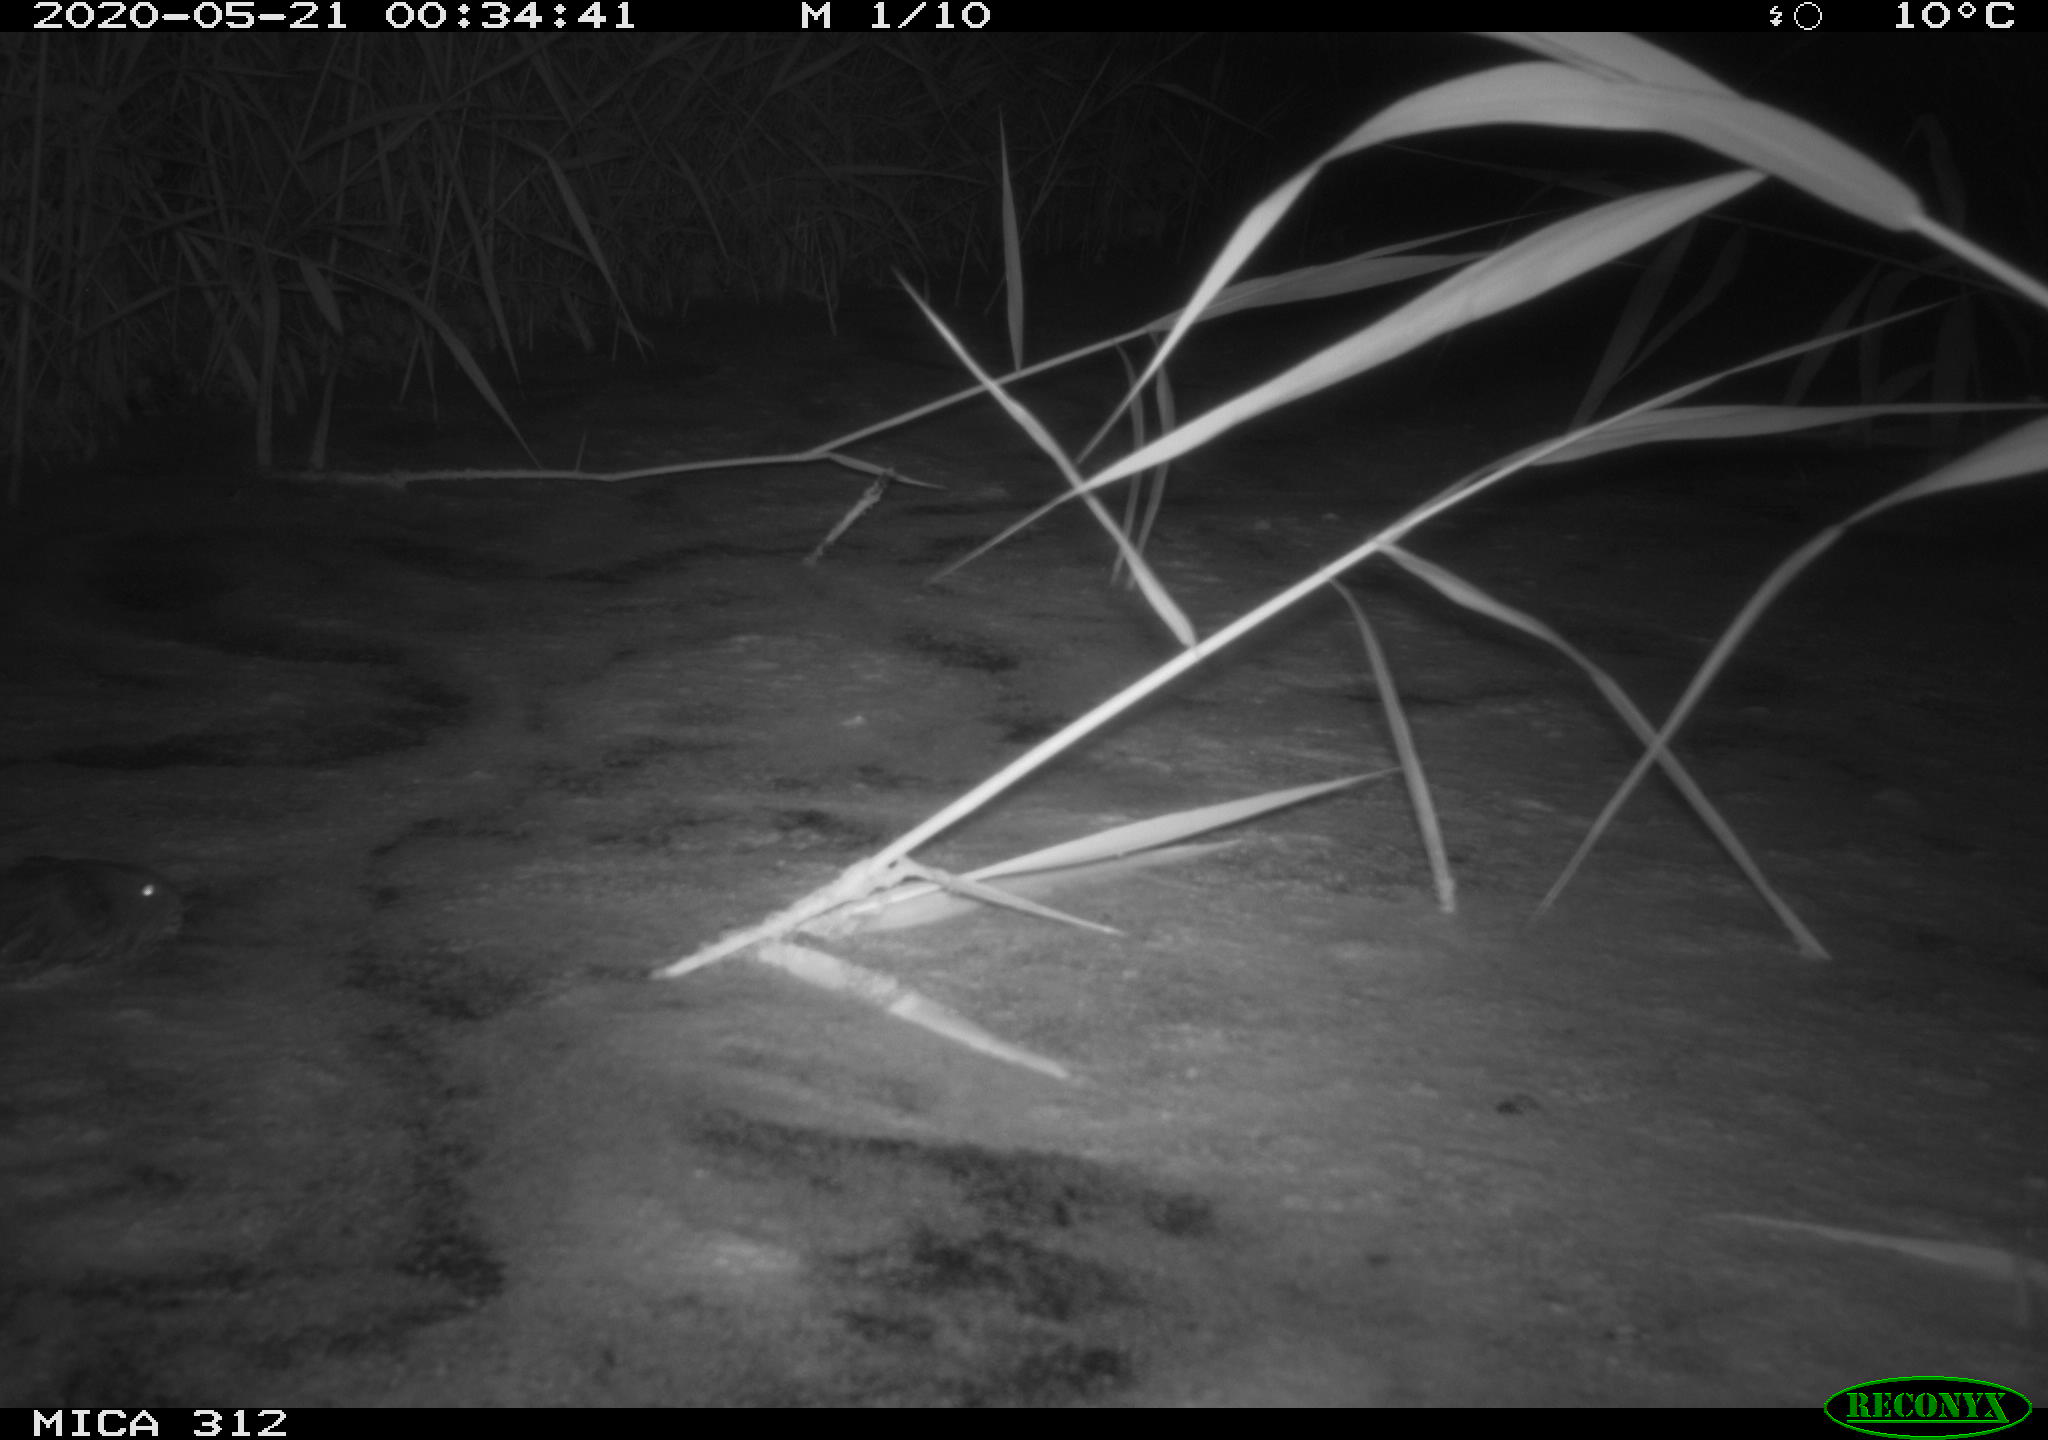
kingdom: Animalia
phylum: Chordata
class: Mammalia
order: Rodentia
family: Cricetidae
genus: Ondatra
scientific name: Ondatra zibethicus
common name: Muskrat
